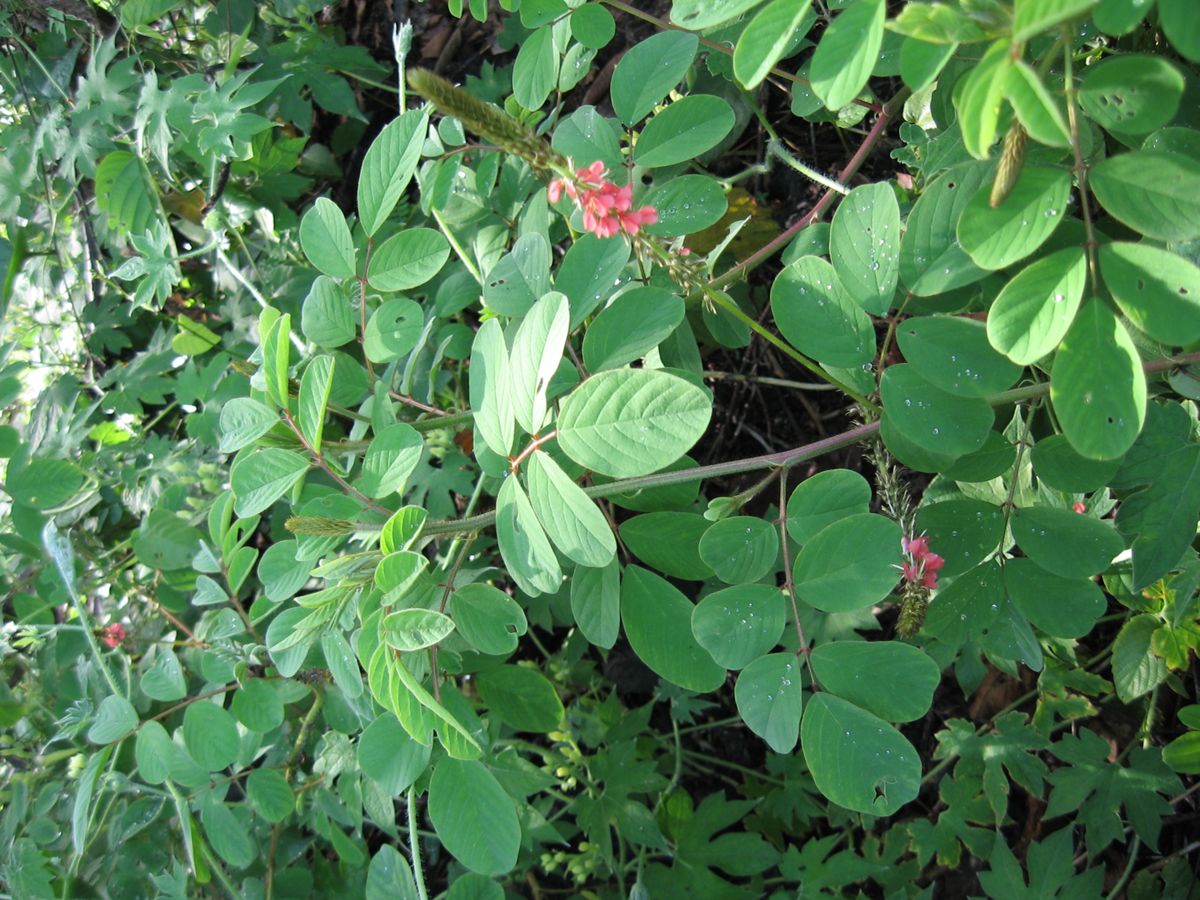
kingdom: Plantae
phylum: Tracheophyta
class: Magnoliopsida
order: Fabales
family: Fabaceae
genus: Indigofera
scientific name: Indigofera hirsuta
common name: Hairy indigo
